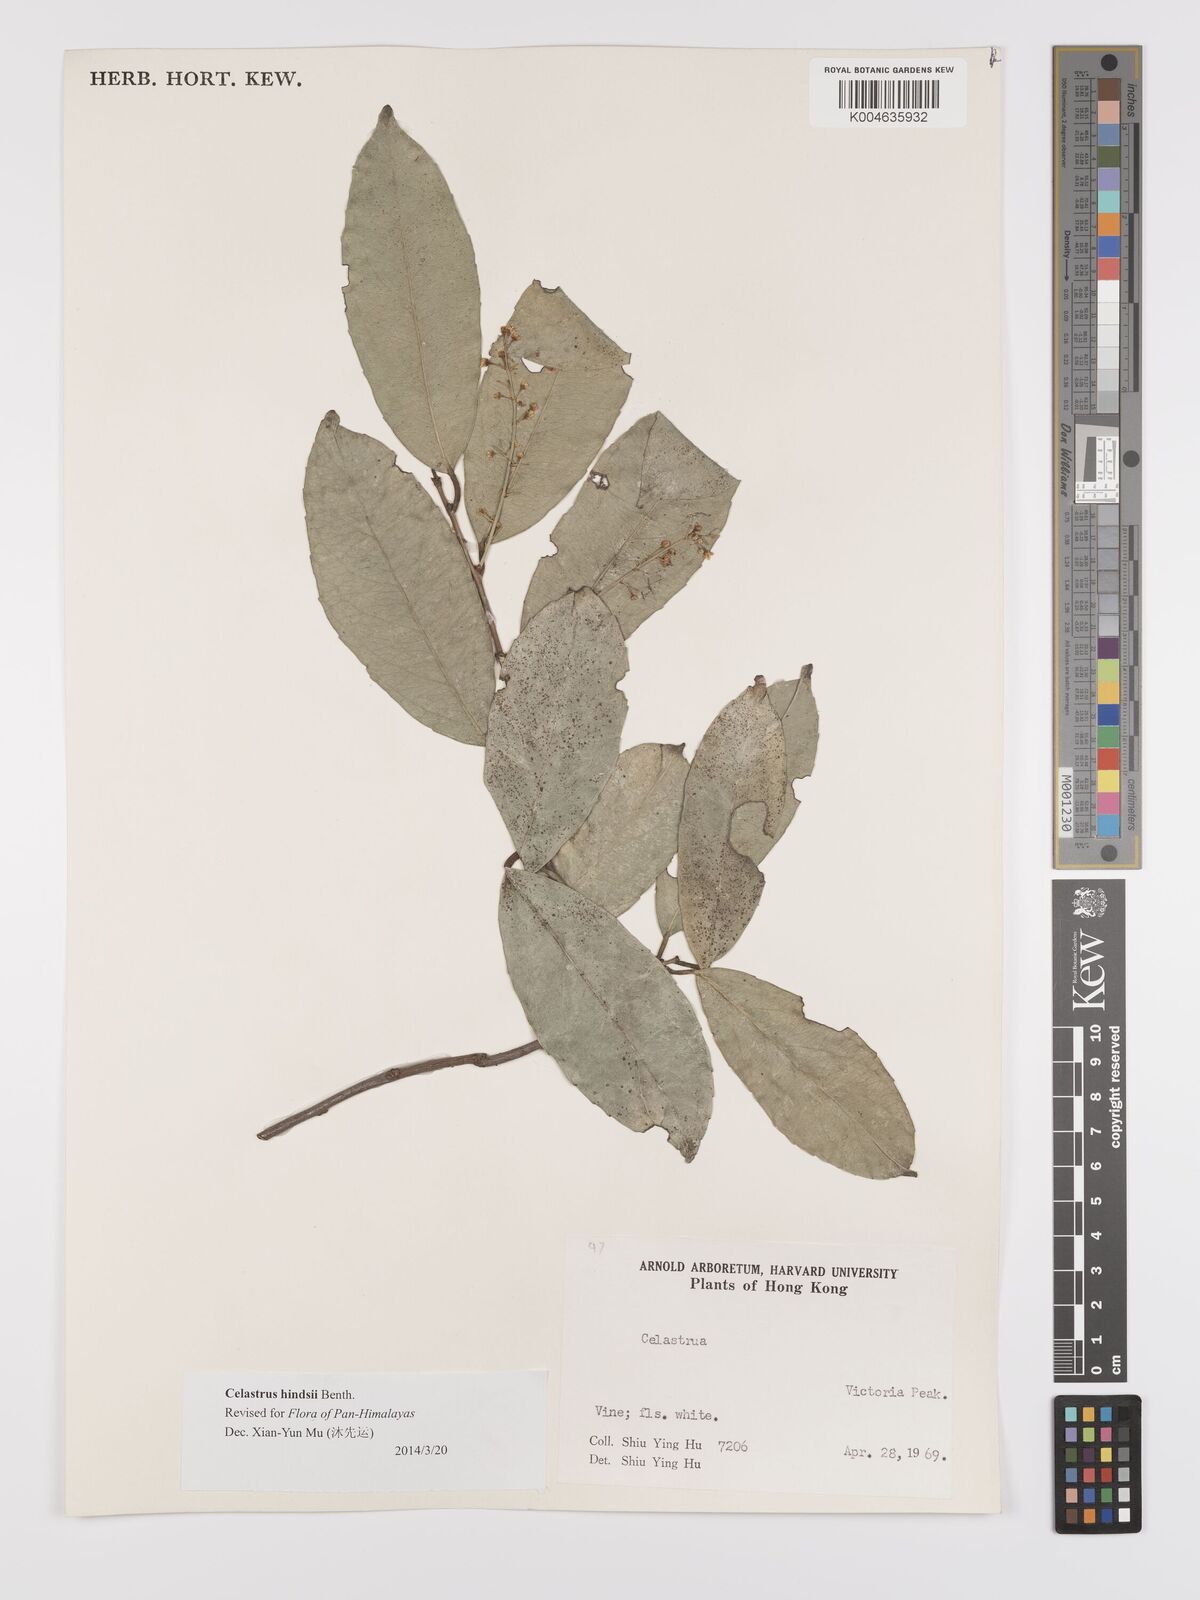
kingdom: Plantae
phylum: Tracheophyta
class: Magnoliopsida
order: Celastrales
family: Celastraceae
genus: Celastrus
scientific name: Celastrus hindsii
